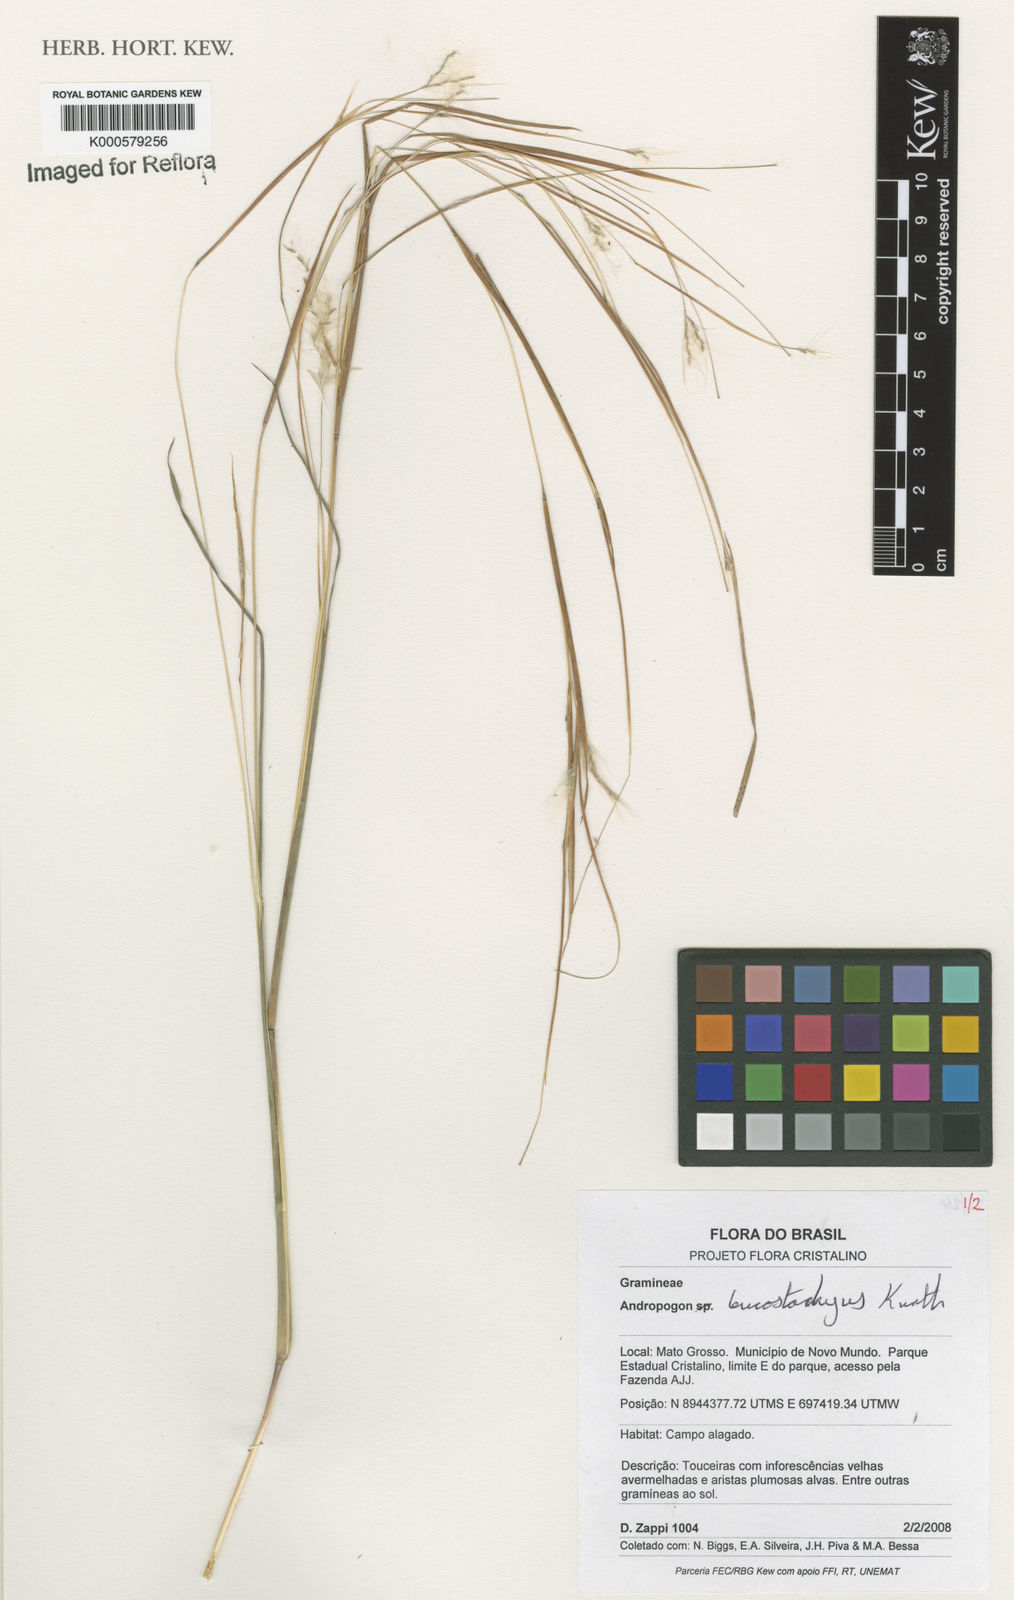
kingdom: Plantae
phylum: Tracheophyta
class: Liliopsida
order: Poales
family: Poaceae
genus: Andropogon
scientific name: Andropogon leucostachyus
